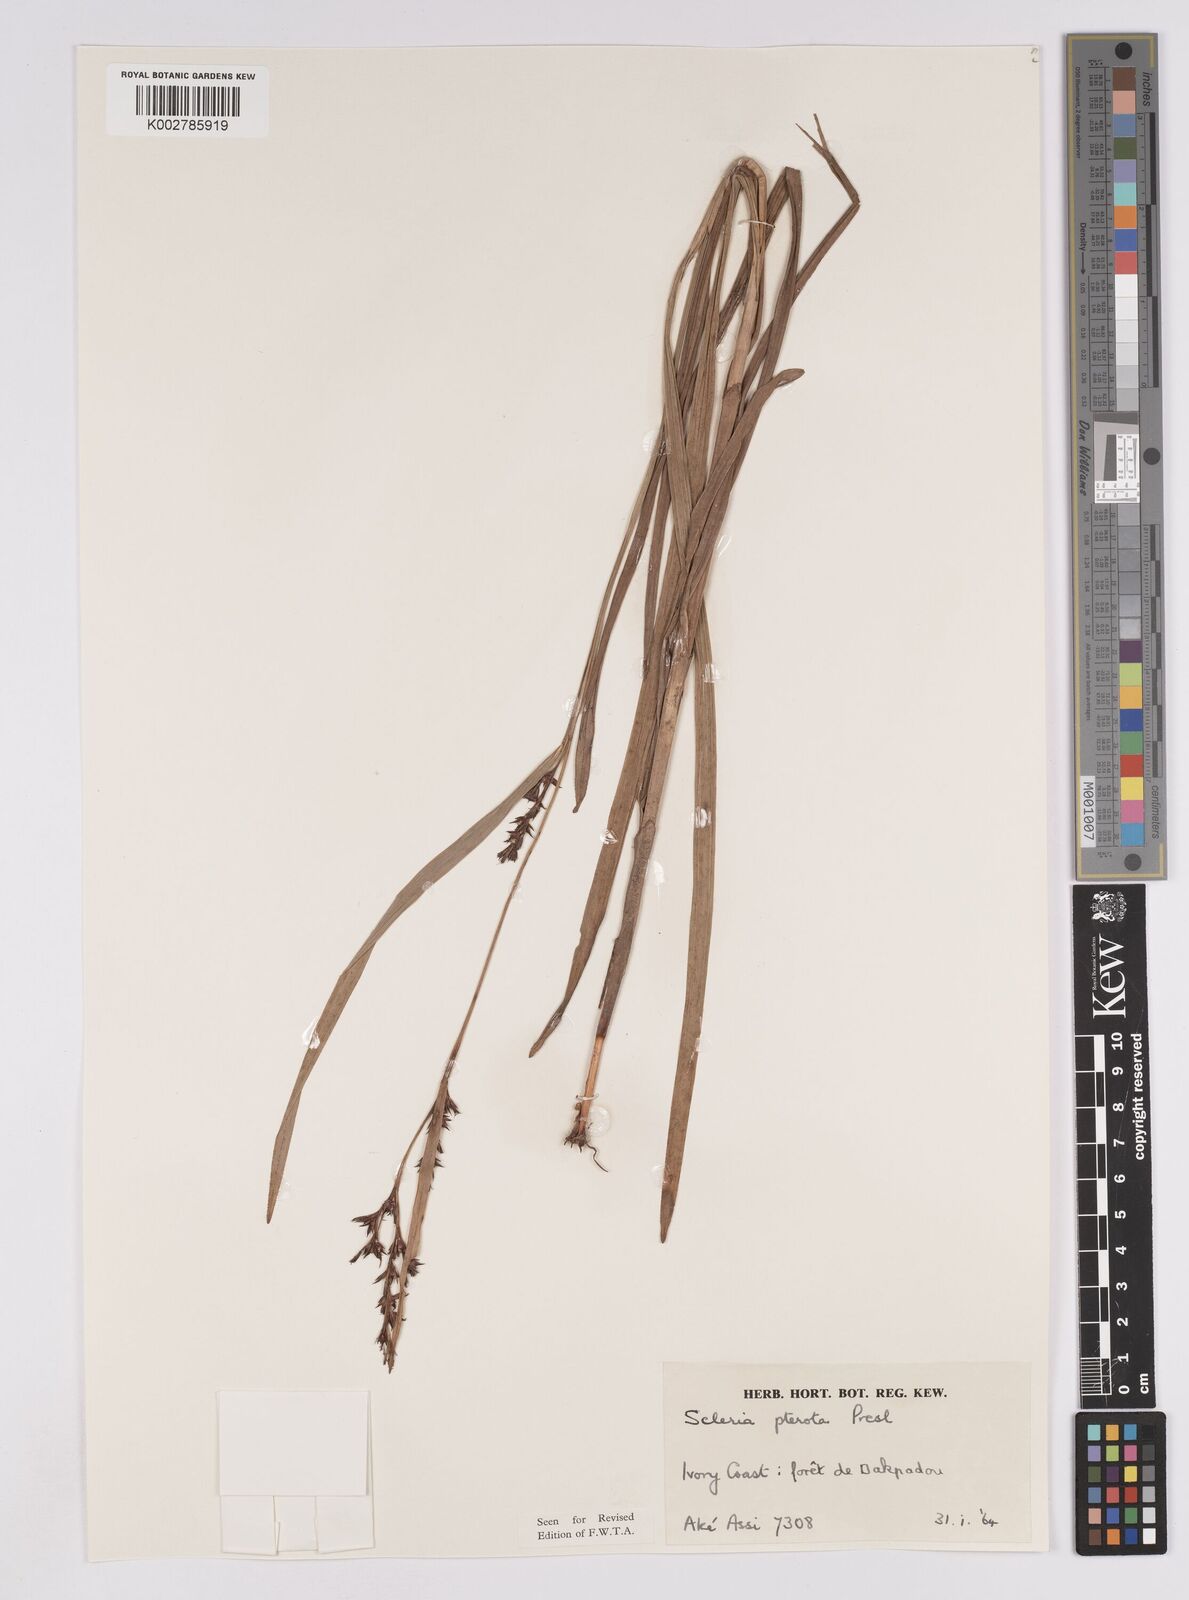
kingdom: Plantae
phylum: Tracheophyta
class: Liliopsida
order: Poales
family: Cyperaceae
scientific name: Cyperaceae
